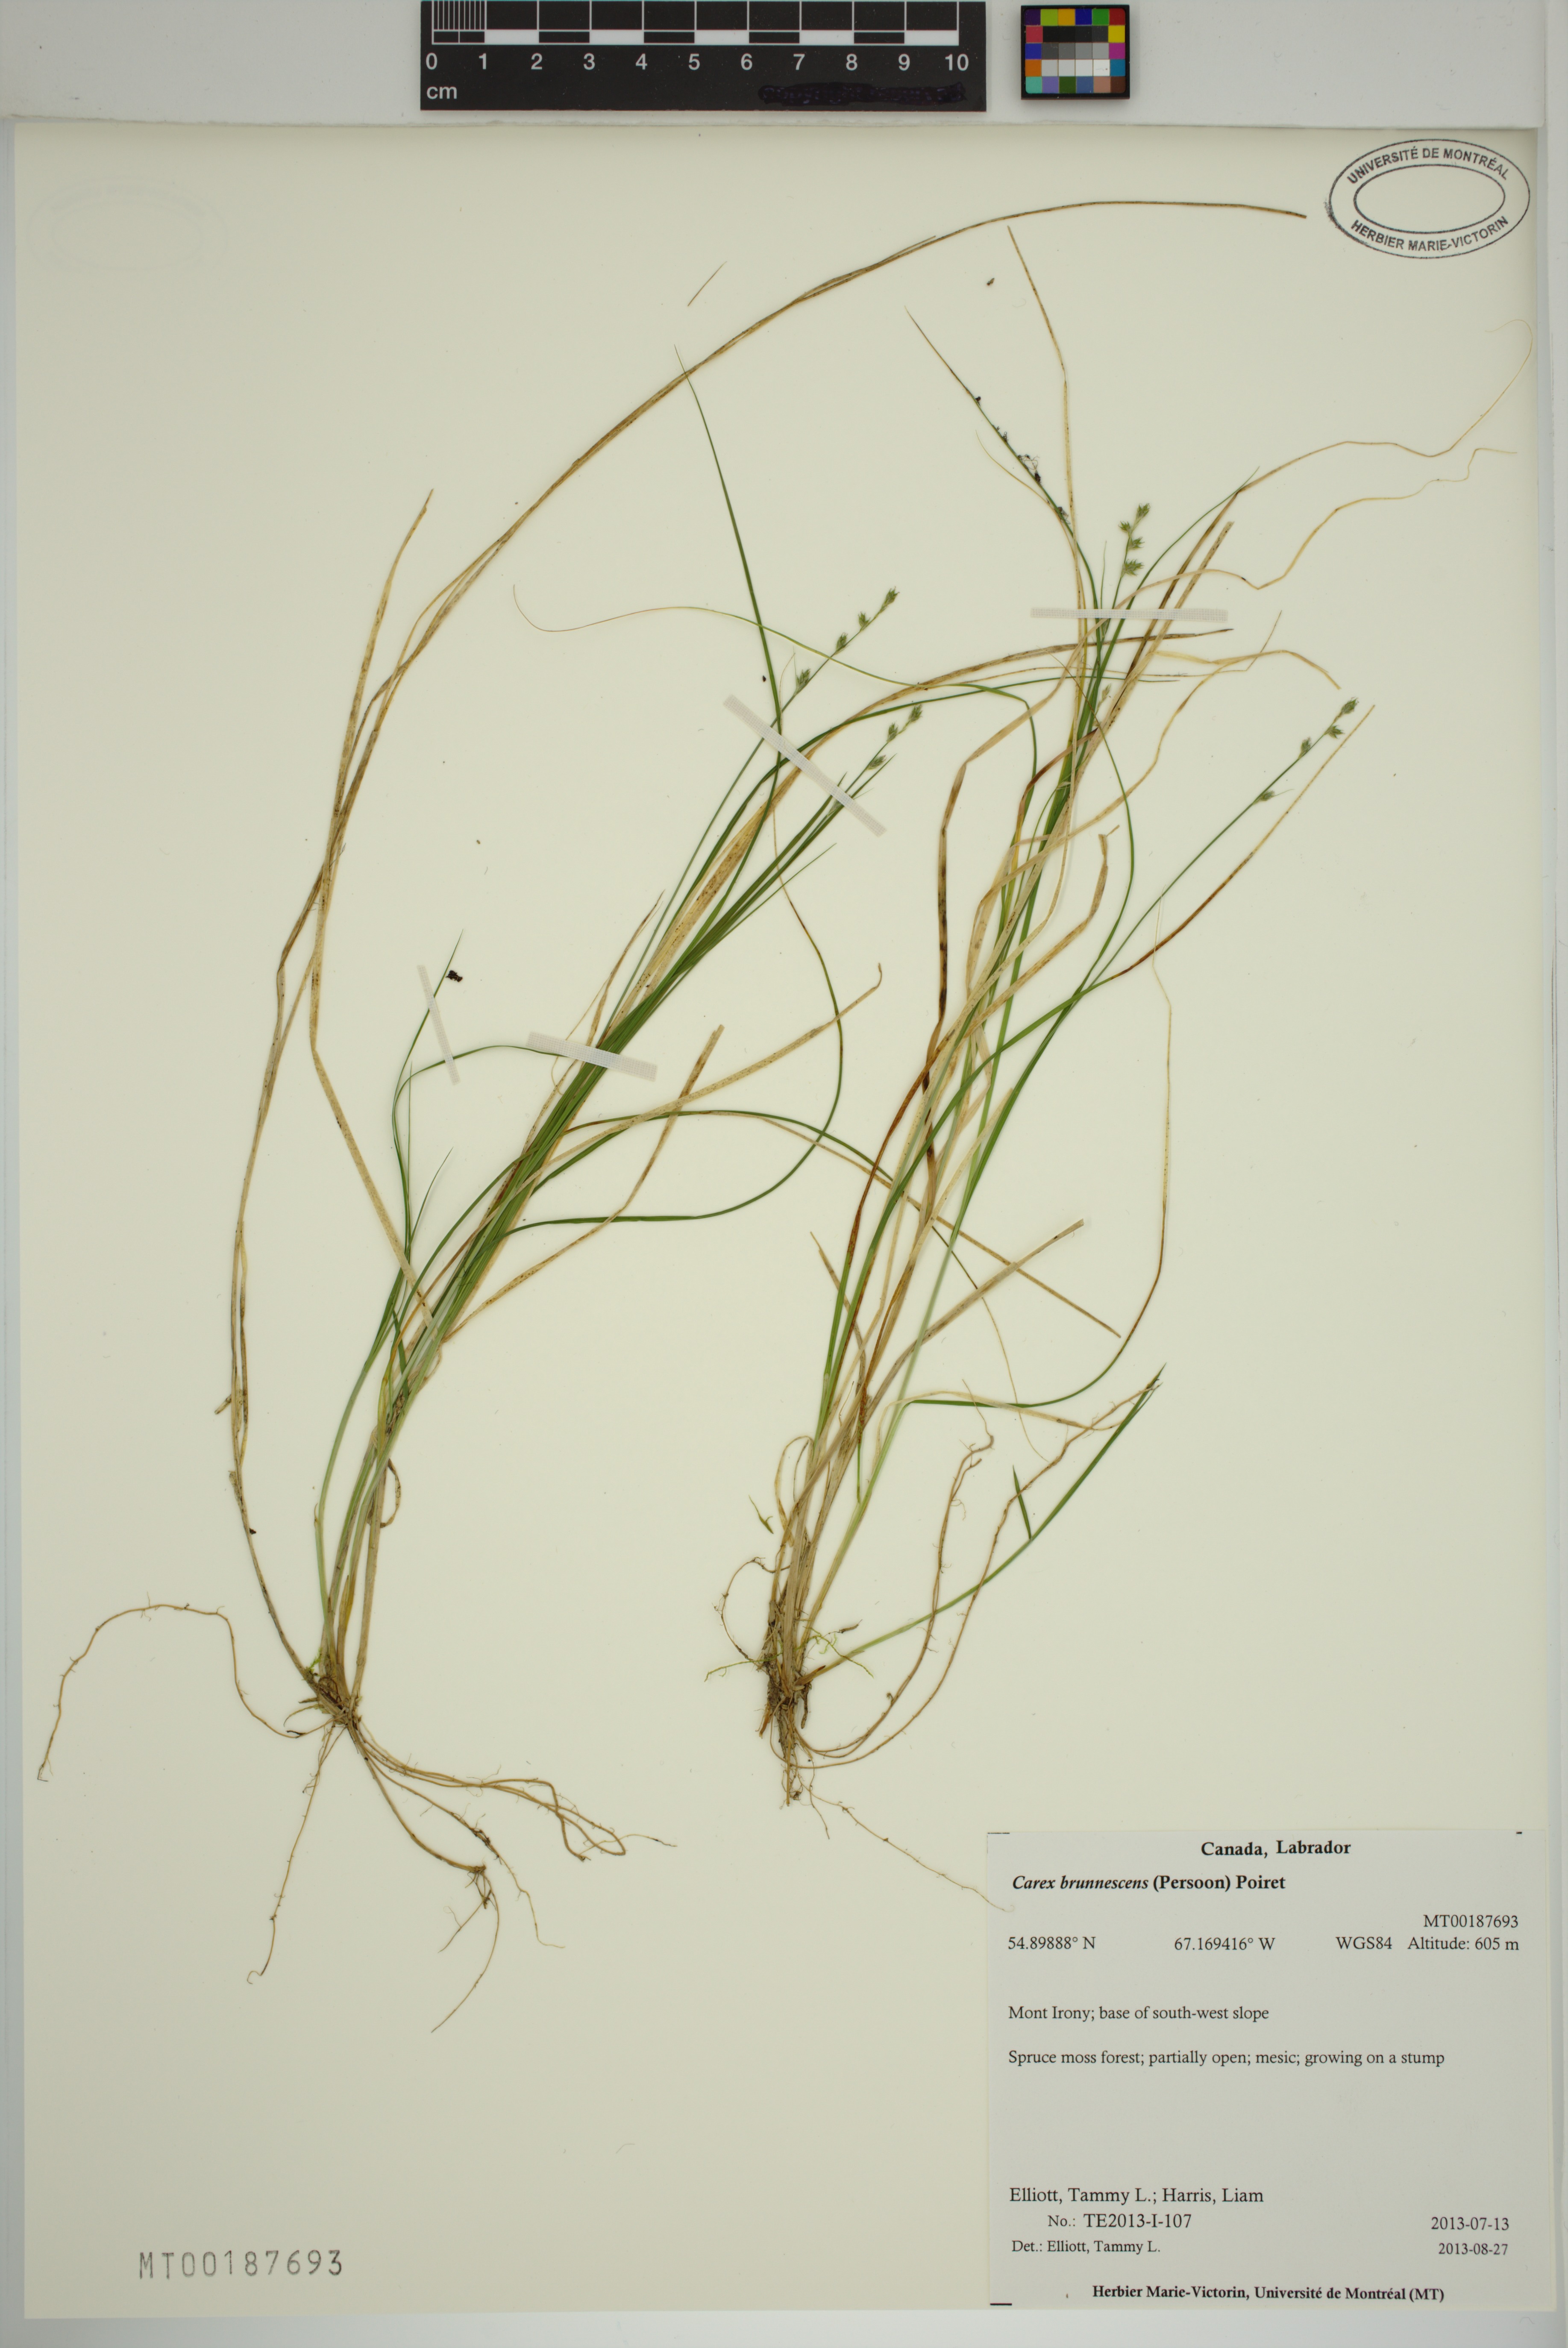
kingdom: Plantae
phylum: Tracheophyta
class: Liliopsida
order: Poales
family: Cyperaceae
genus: Carex
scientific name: Carex brunnescens
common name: Brown sedge
